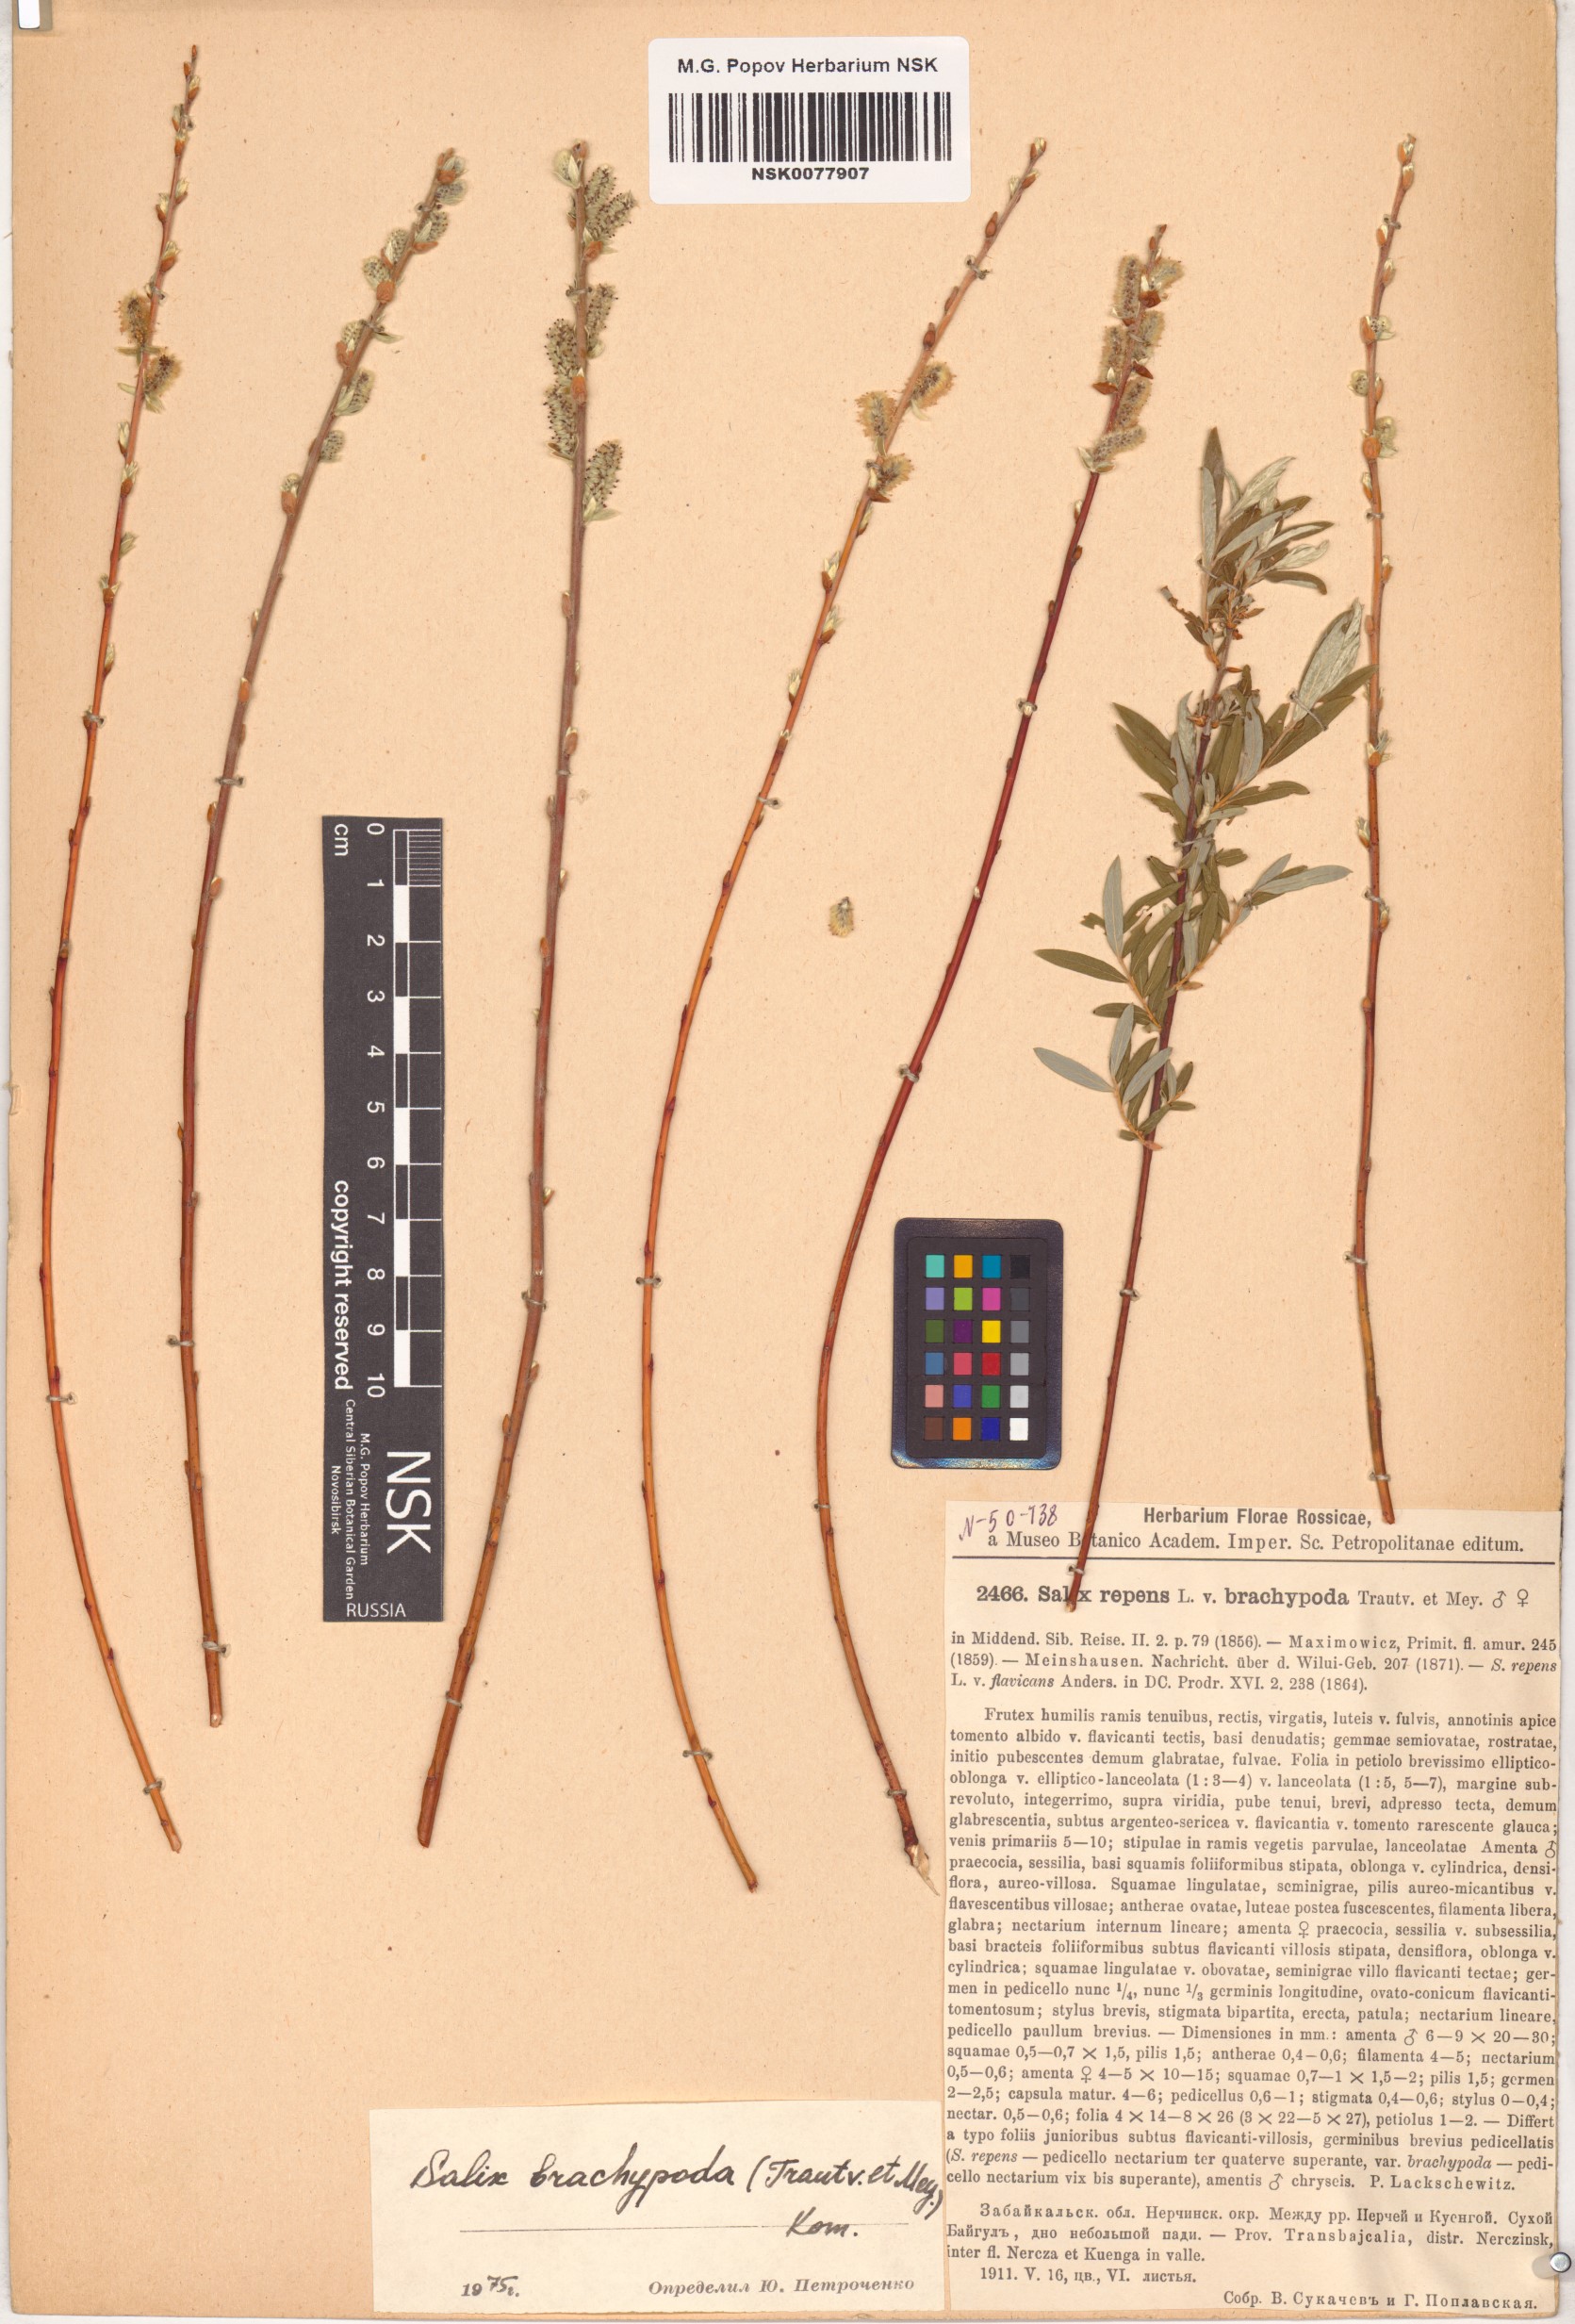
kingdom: Plantae
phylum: Tracheophyta
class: Magnoliopsida
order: Malpighiales
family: Salicaceae
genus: Salix
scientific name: Salix brachypoda
